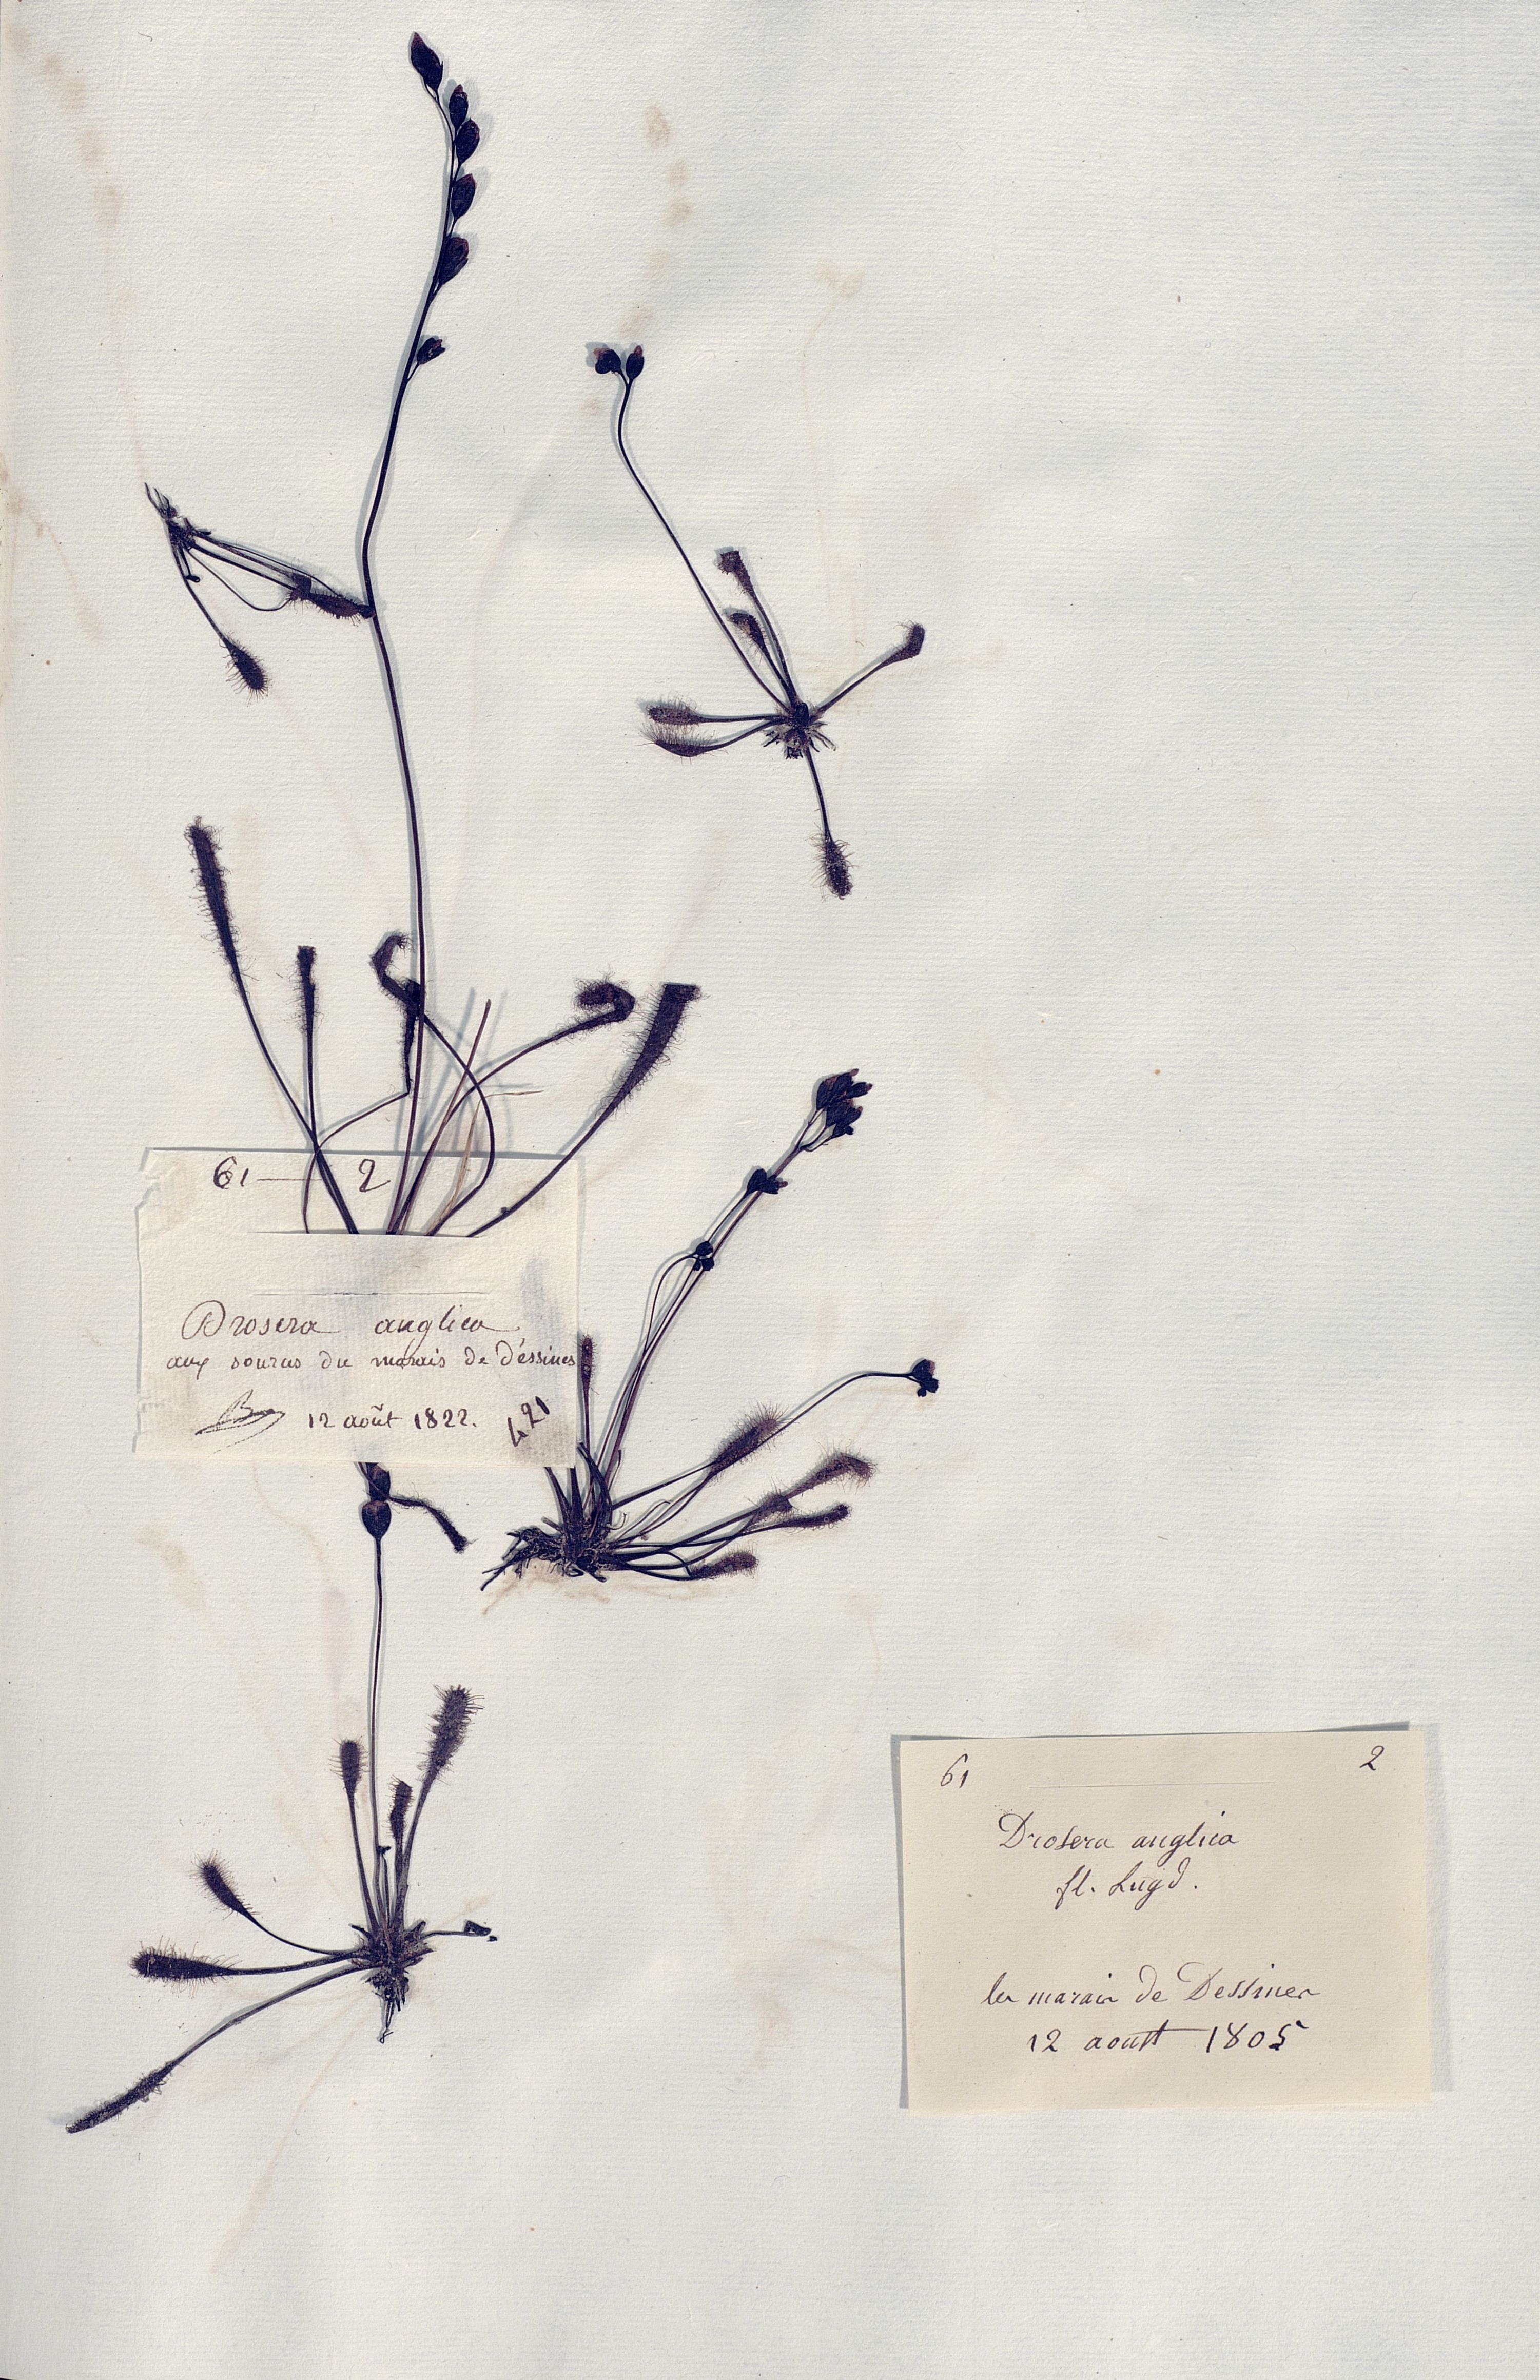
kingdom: Plantae
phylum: Tracheophyta
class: Magnoliopsida
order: Caryophyllales
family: Droseraceae
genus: Drosera
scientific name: Drosera anglica
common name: Great sundew
